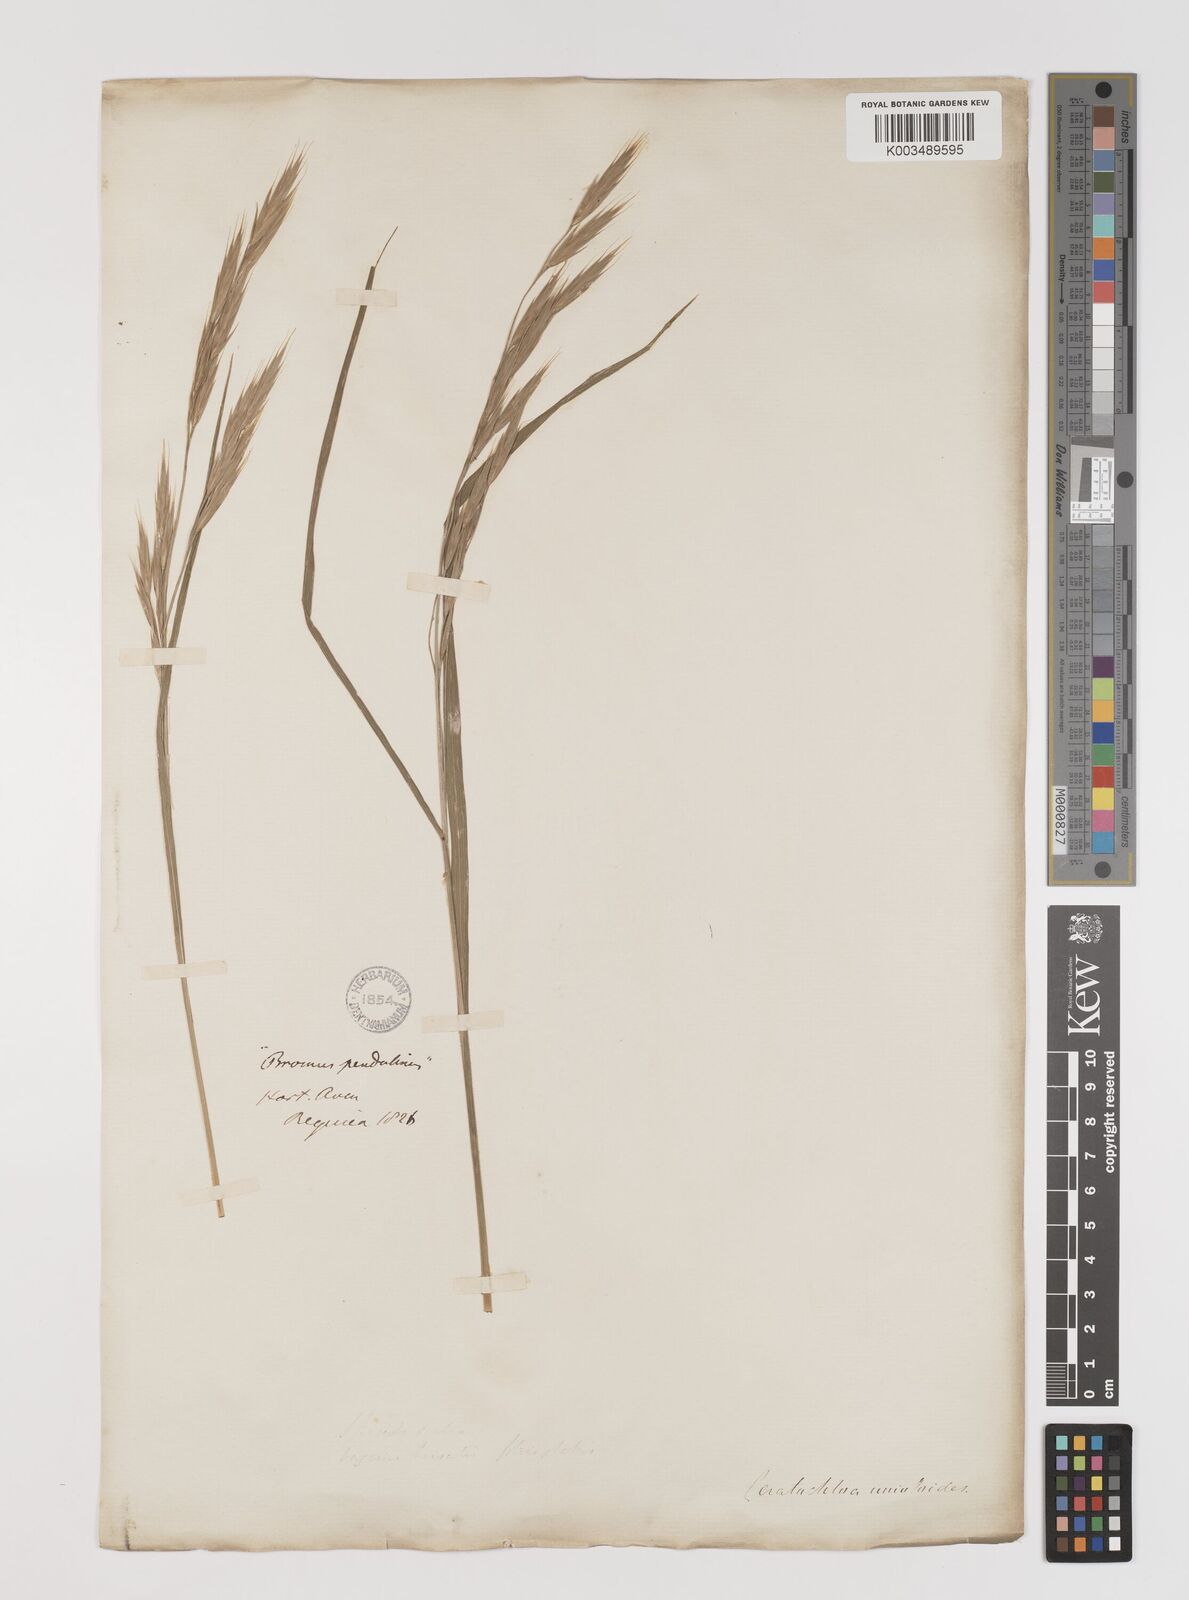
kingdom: Plantae
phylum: Tracheophyta
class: Liliopsida
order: Poales
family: Poaceae
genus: Bromus
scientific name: Bromus carinatus
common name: Mountain brome
